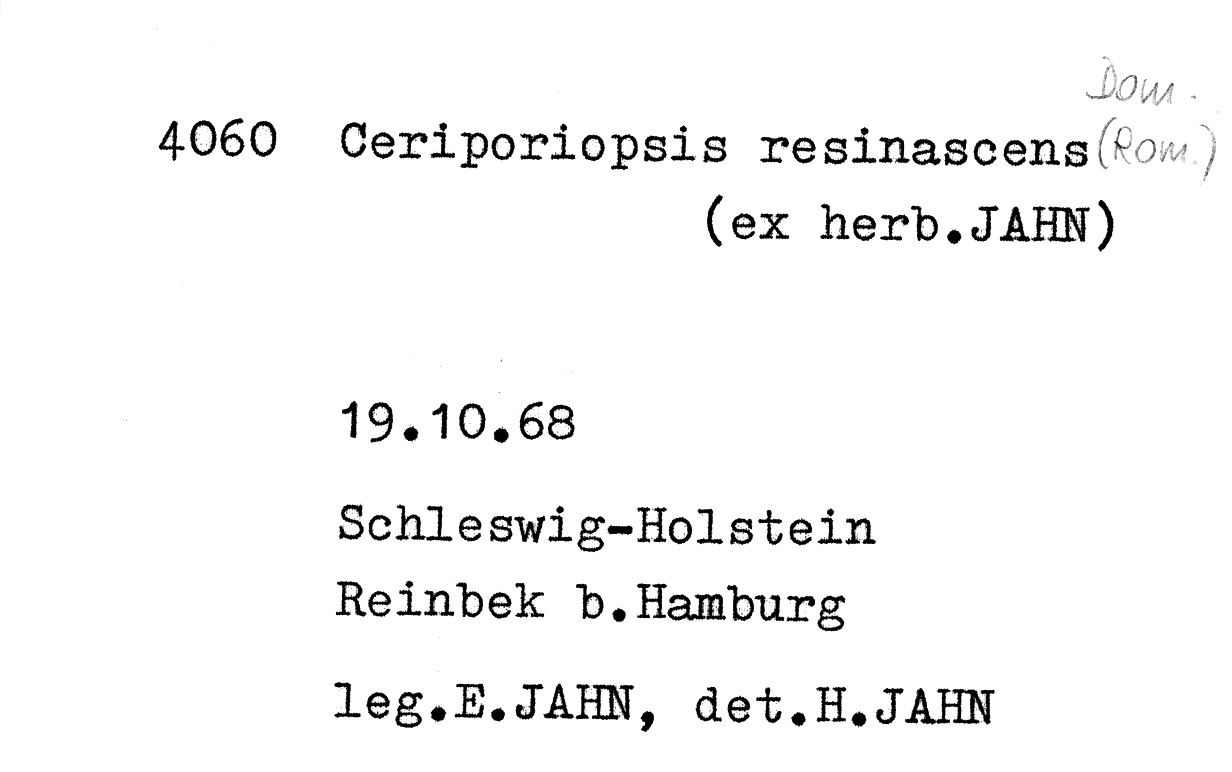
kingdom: Fungi
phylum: Basidiomycota
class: Agaricomycetes
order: Polyporales
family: Irpicaceae
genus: Resiniporus
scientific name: Resiniporus resinascens
